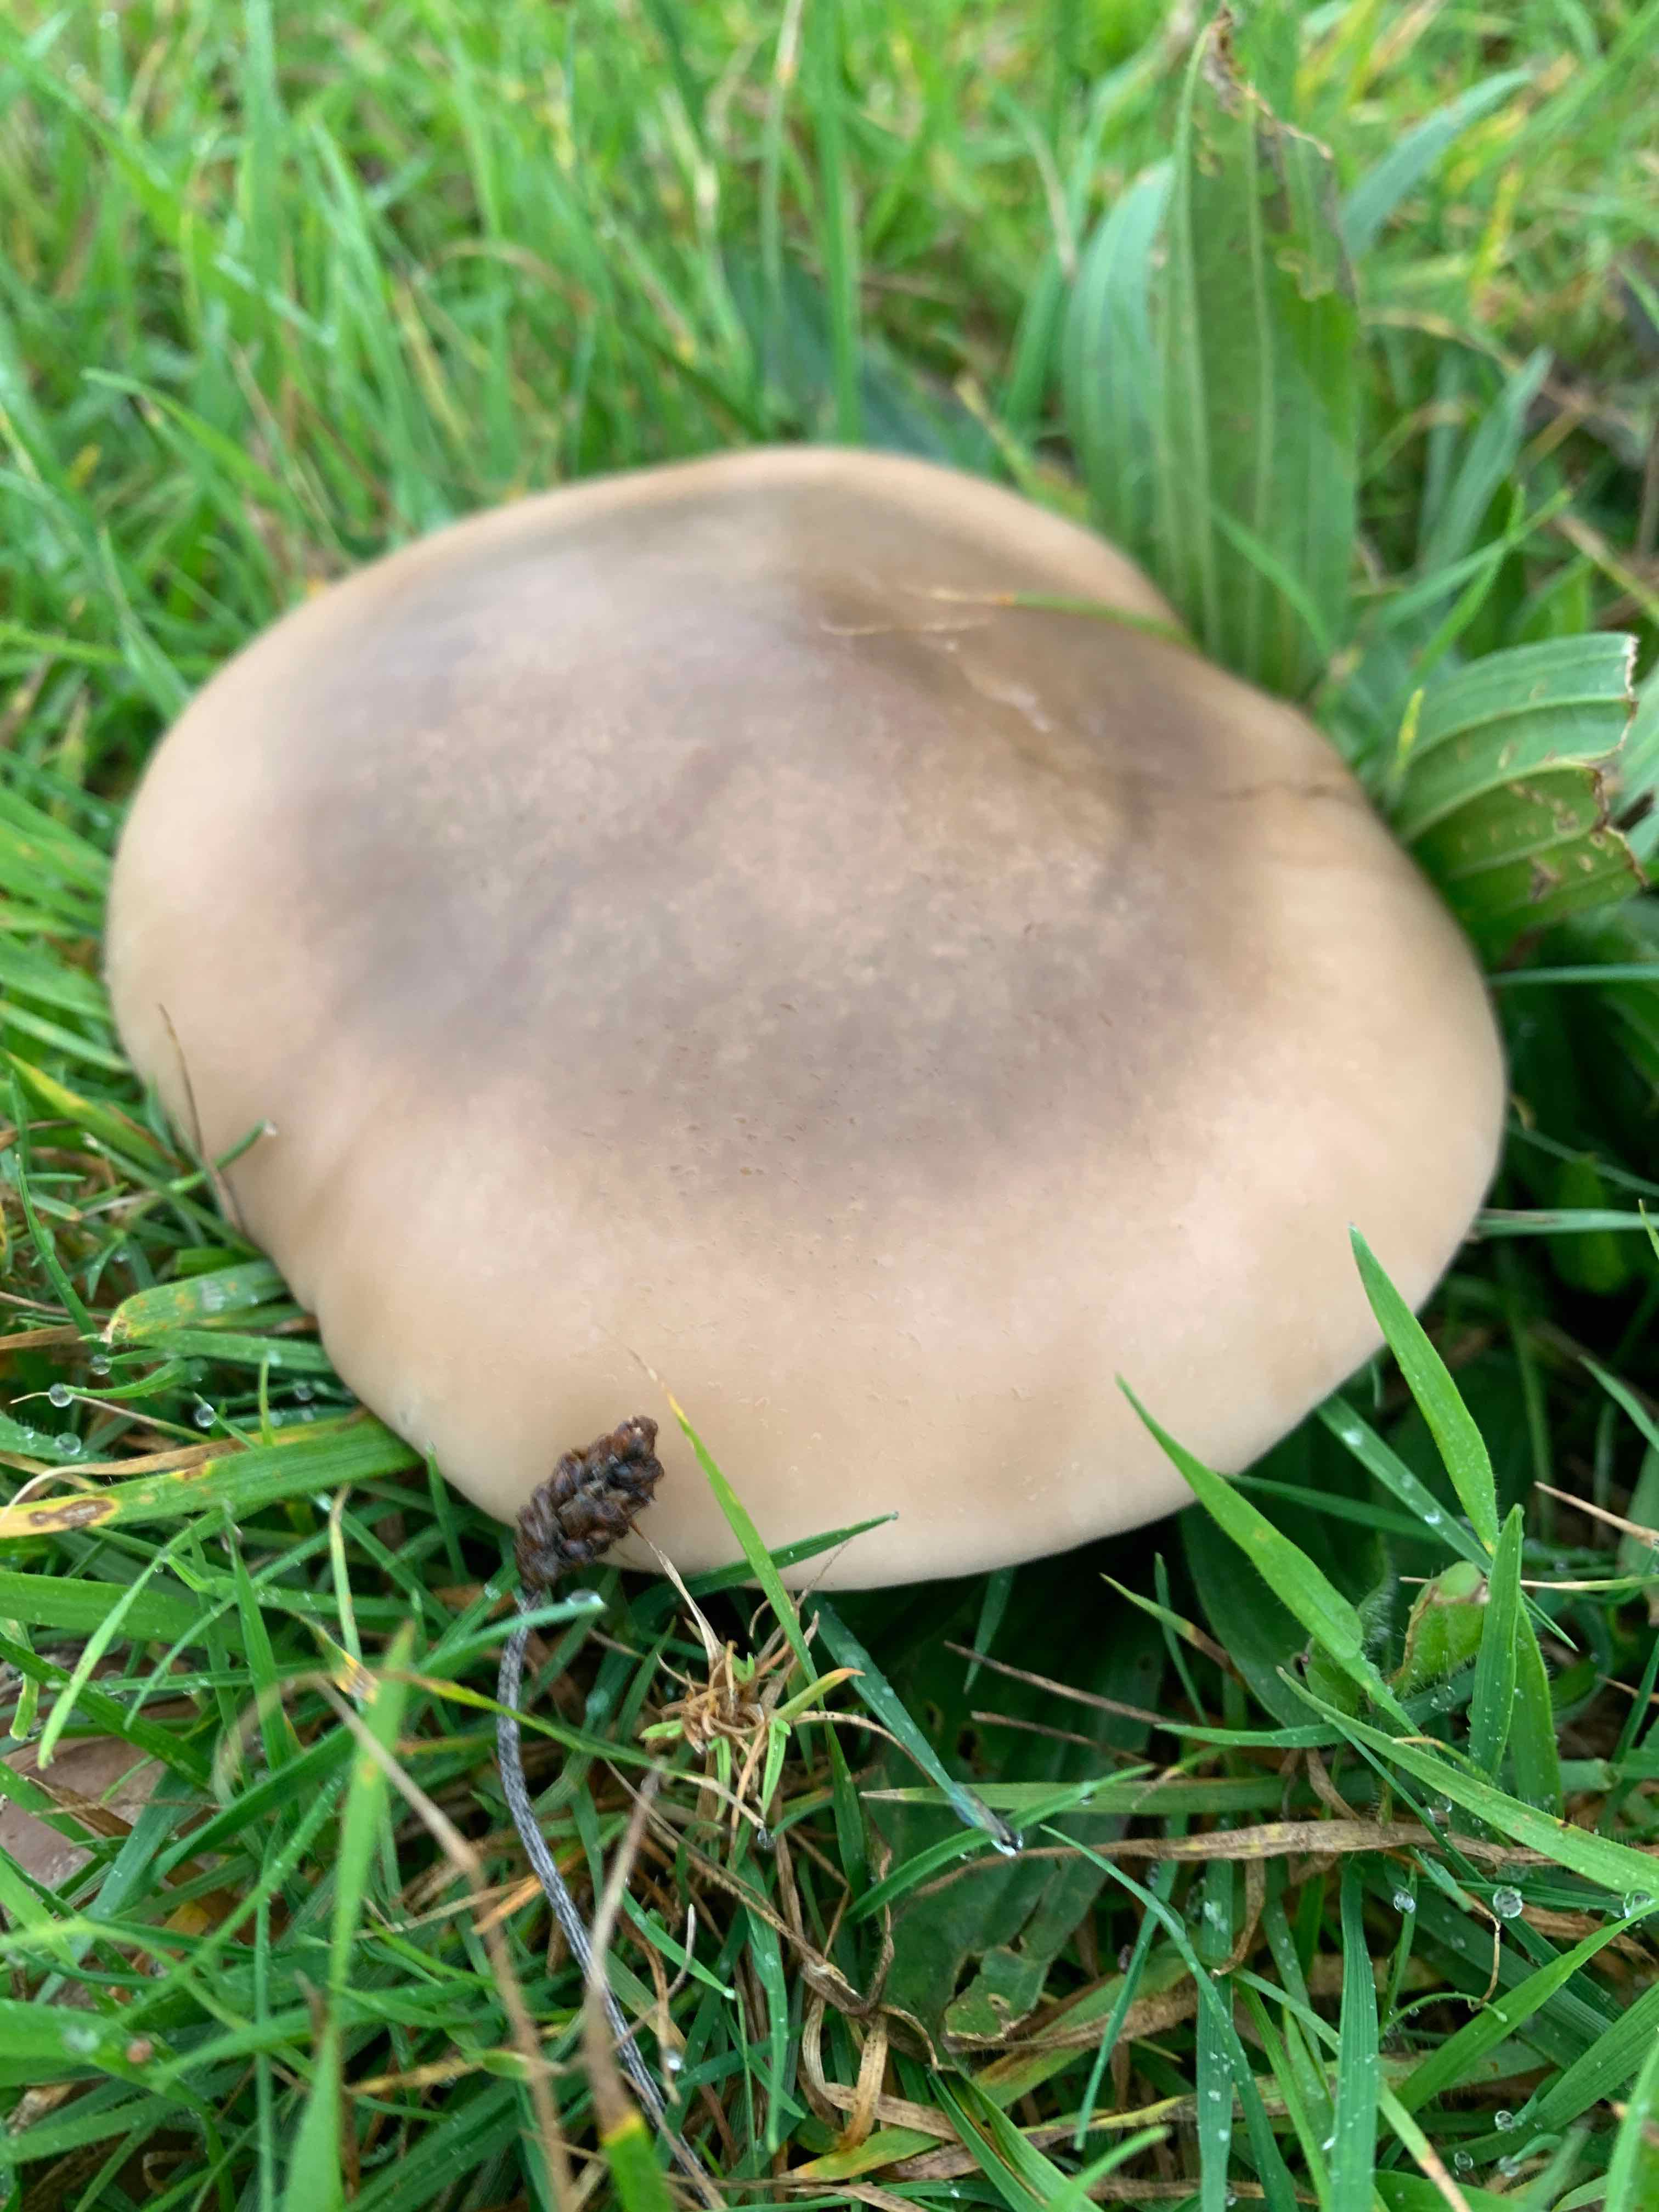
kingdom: Fungi
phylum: Basidiomycota
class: Agaricomycetes
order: Agaricales
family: Tricholomataceae
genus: Lepista
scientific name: Lepista personata
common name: bleg hekseringshat
